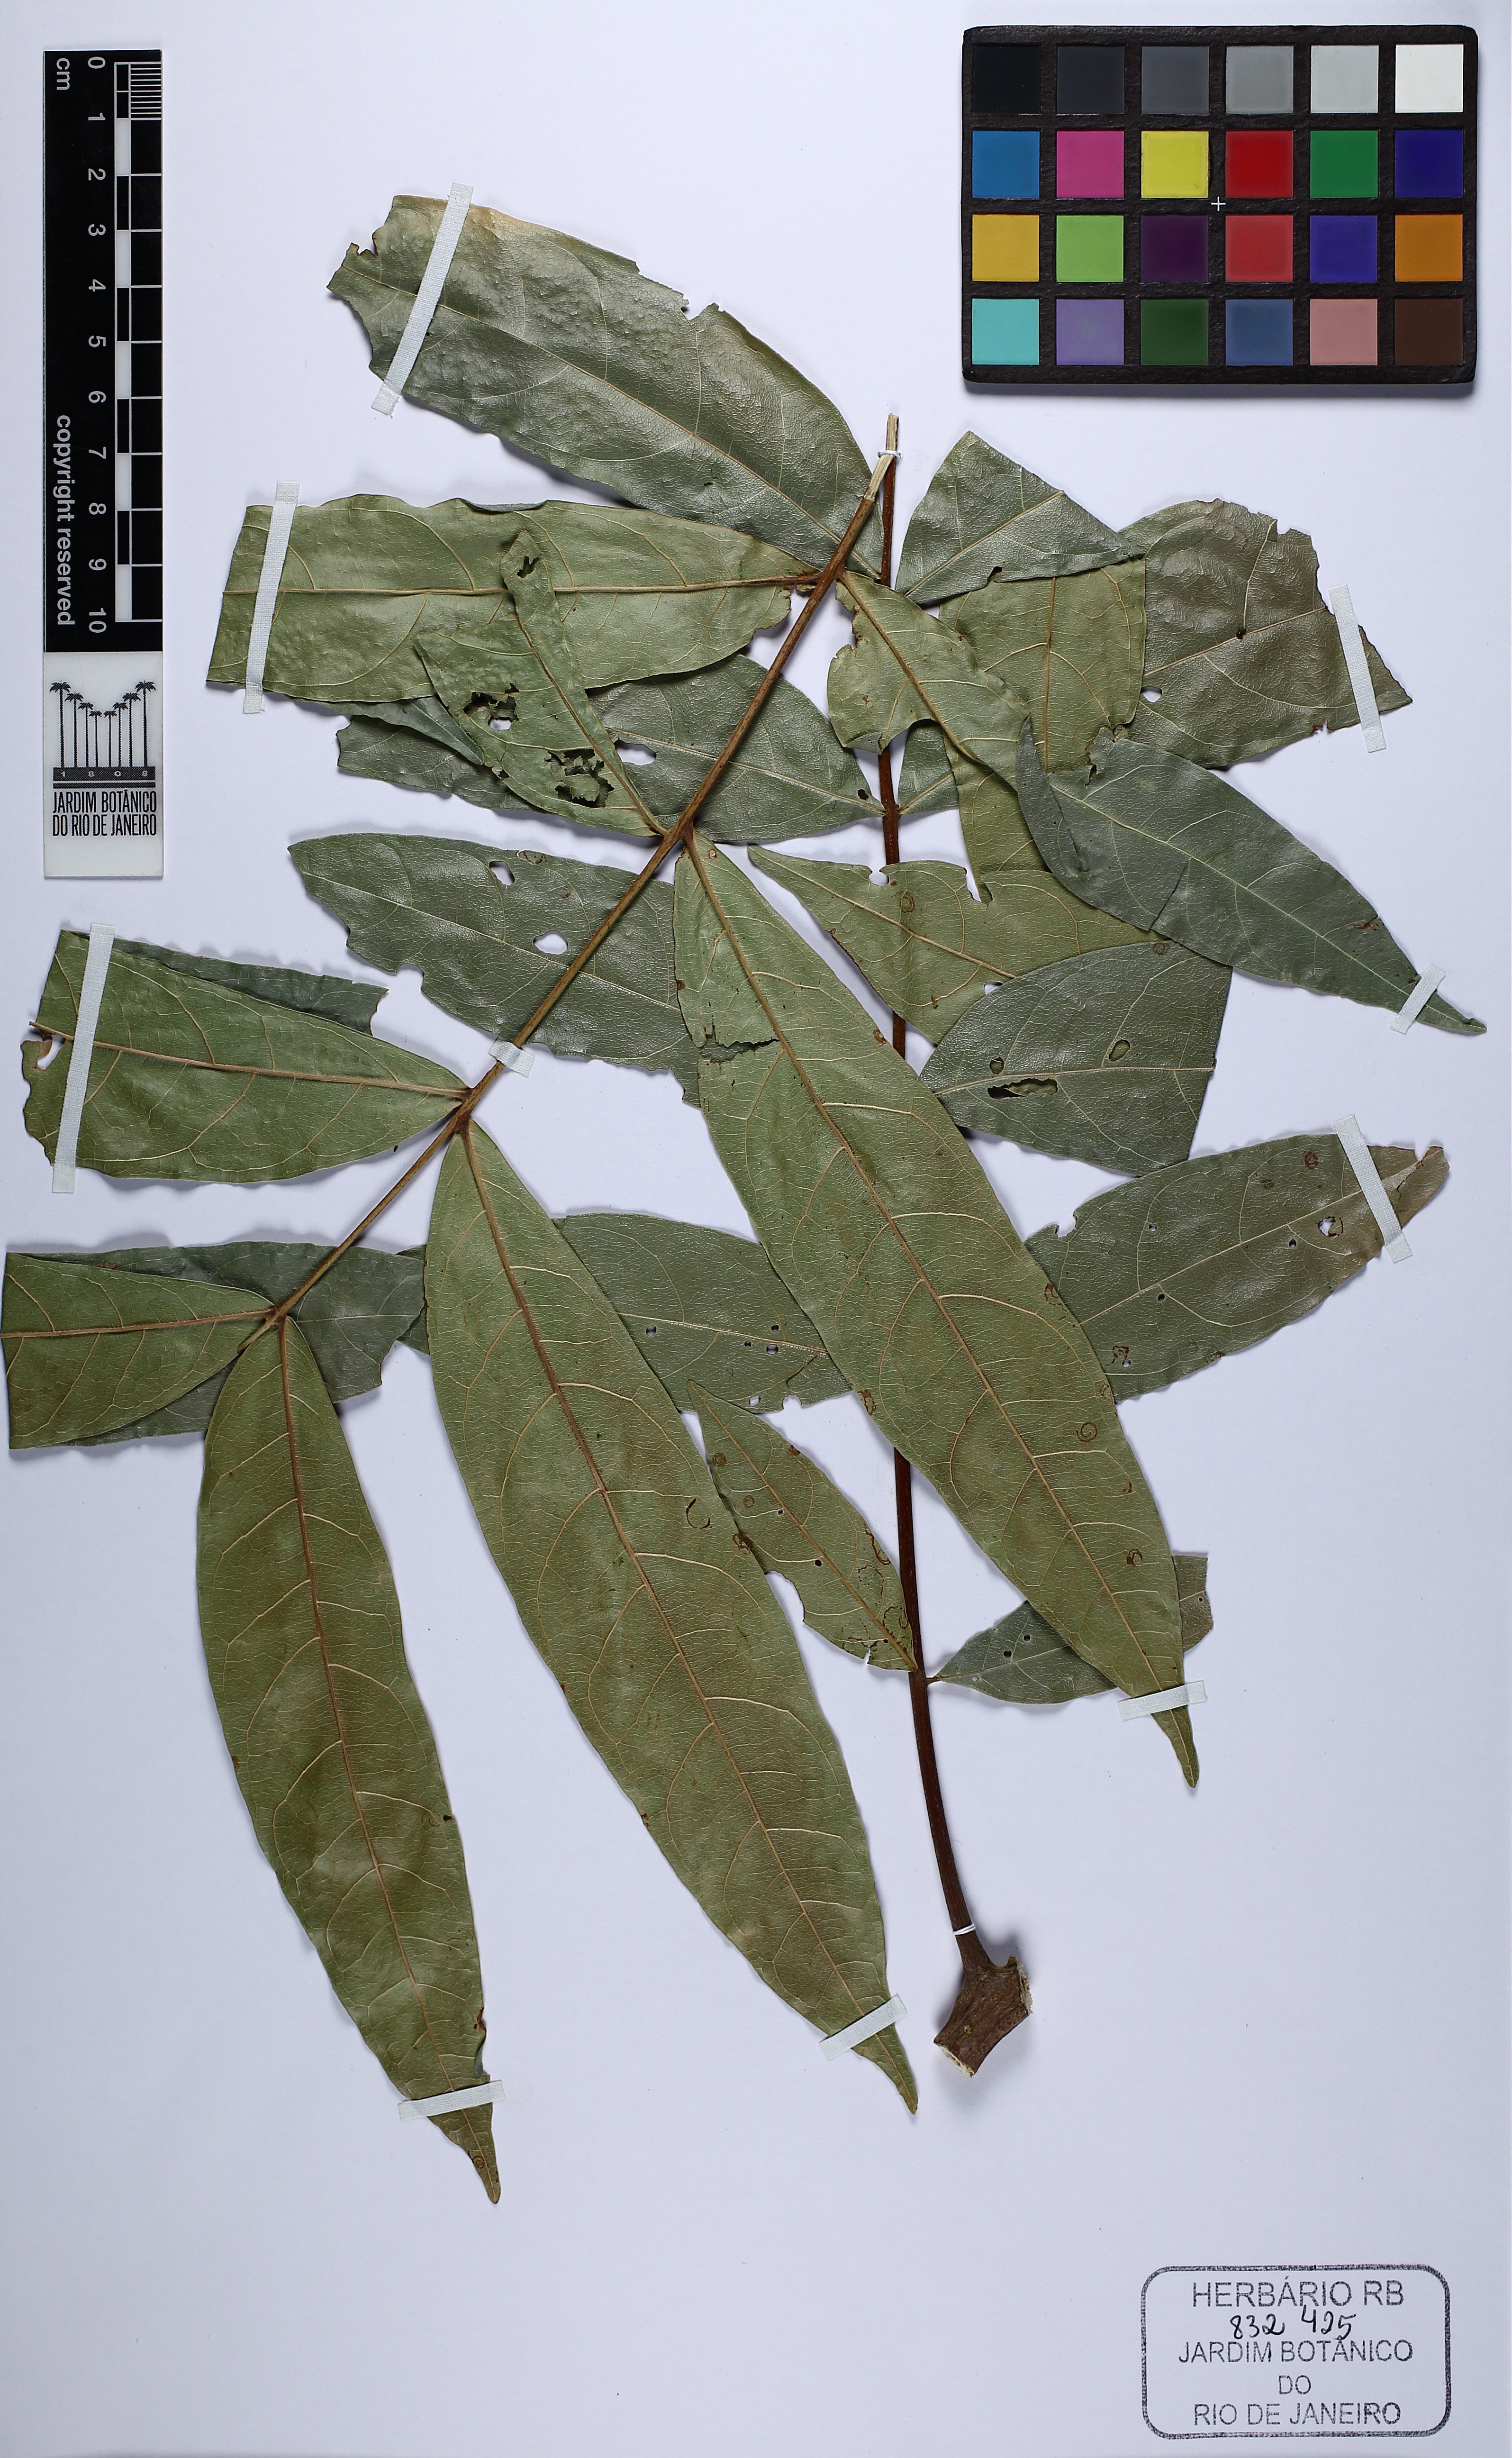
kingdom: Plantae
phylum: Tracheophyta
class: Magnoliopsida
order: Sapindales
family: Sapindaceae
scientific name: Sapindaceae
